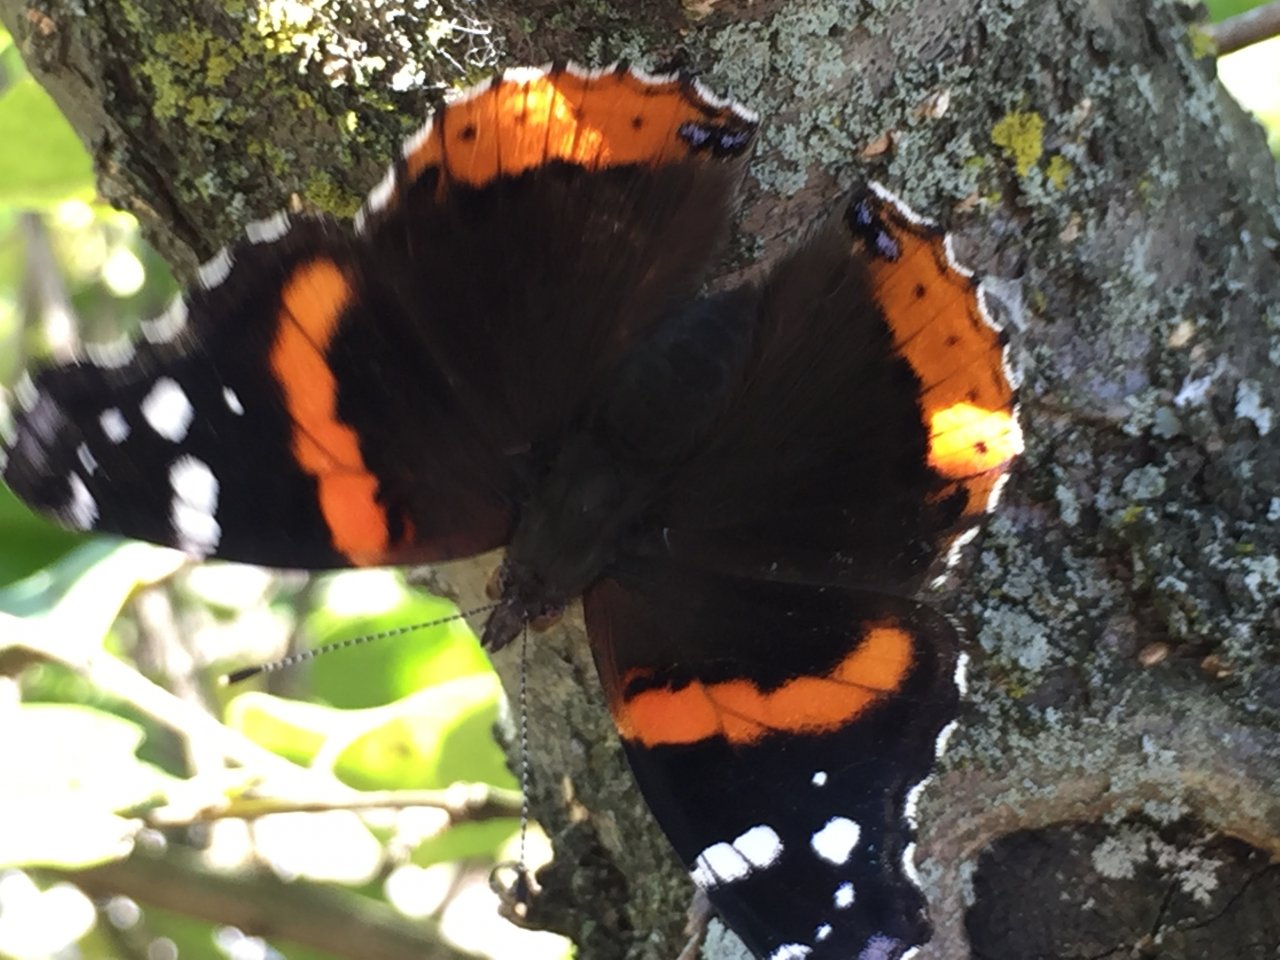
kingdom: Animalia
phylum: Arthropoda
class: Insecta
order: Lepidoptera
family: Nymphalidae
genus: Vanessa
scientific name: Vanessa atalanta
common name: Red Admiral
